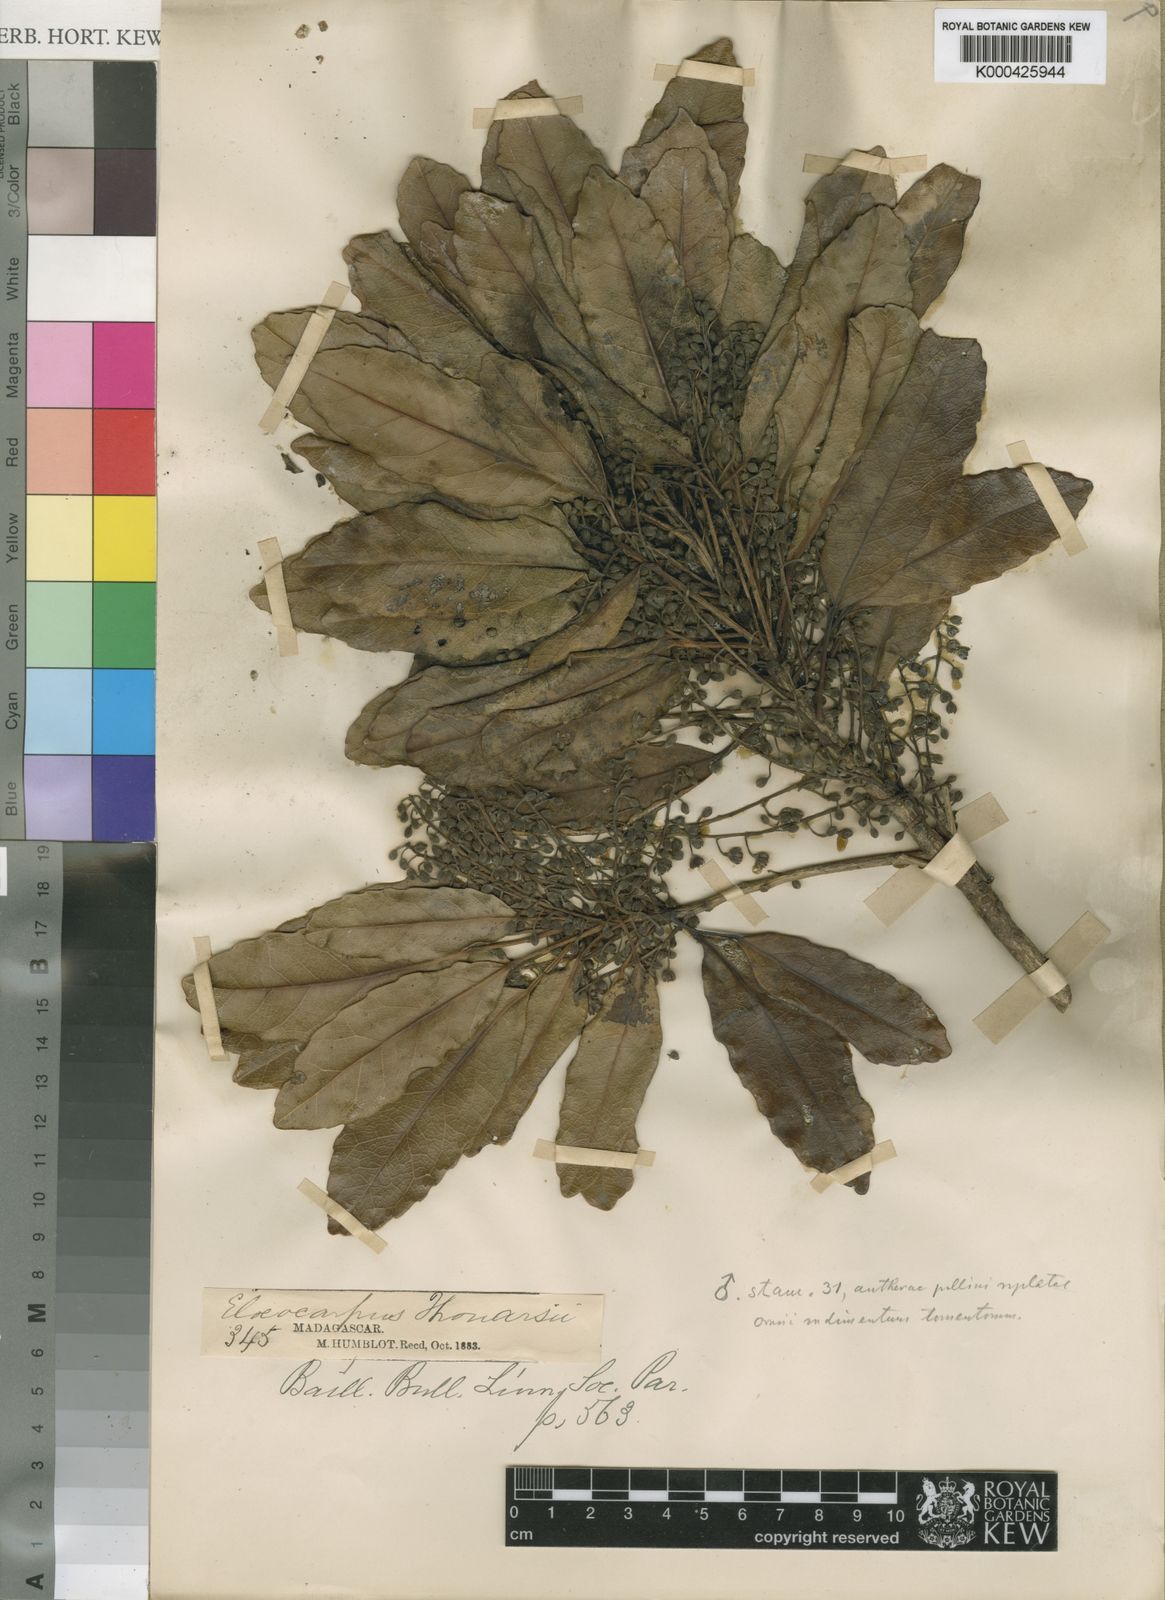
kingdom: Plantae
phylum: Tracheophyta
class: Magnoliopsida
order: Oxalidales
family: Elaeocarpaceae
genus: Elaeocarpus
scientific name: Elaeocarpus alnifolius
